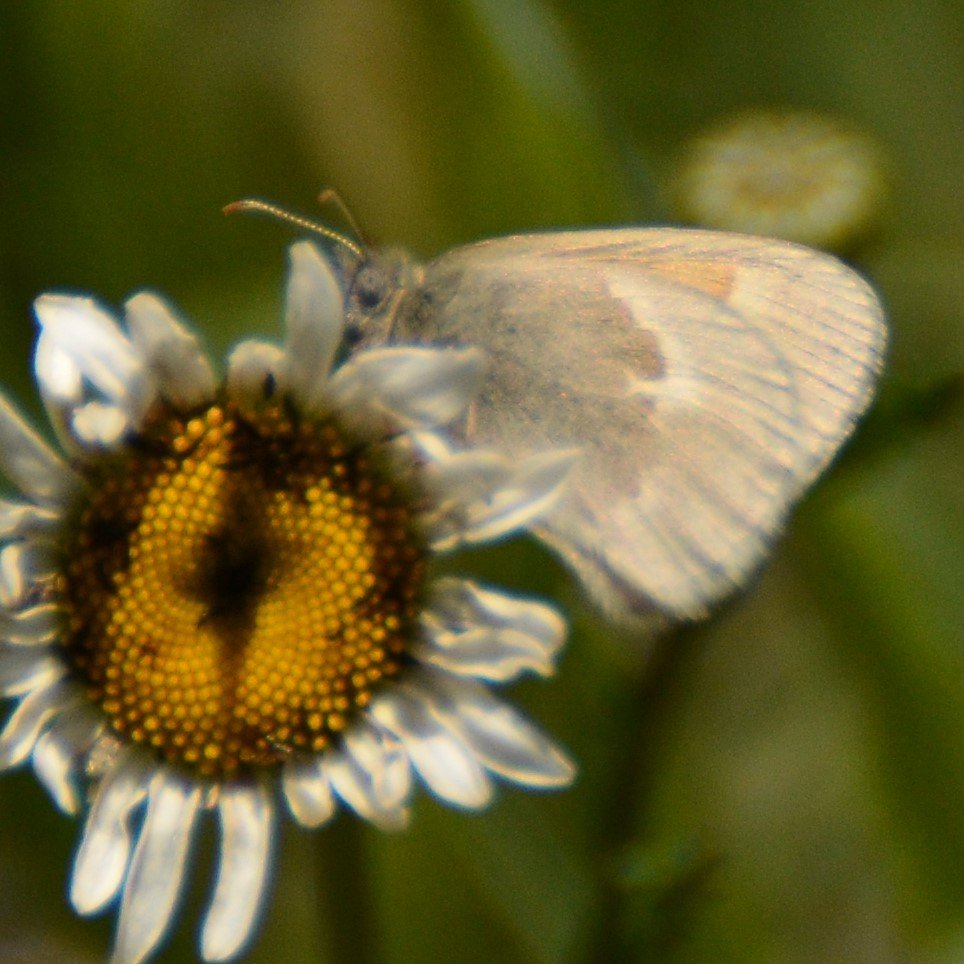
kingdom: Animalia
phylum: Arthropoda
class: Insecta
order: Lepidoptera
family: Nymphalidae
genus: Coenonympha
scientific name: Coenonympha tullia
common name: Large Heath
